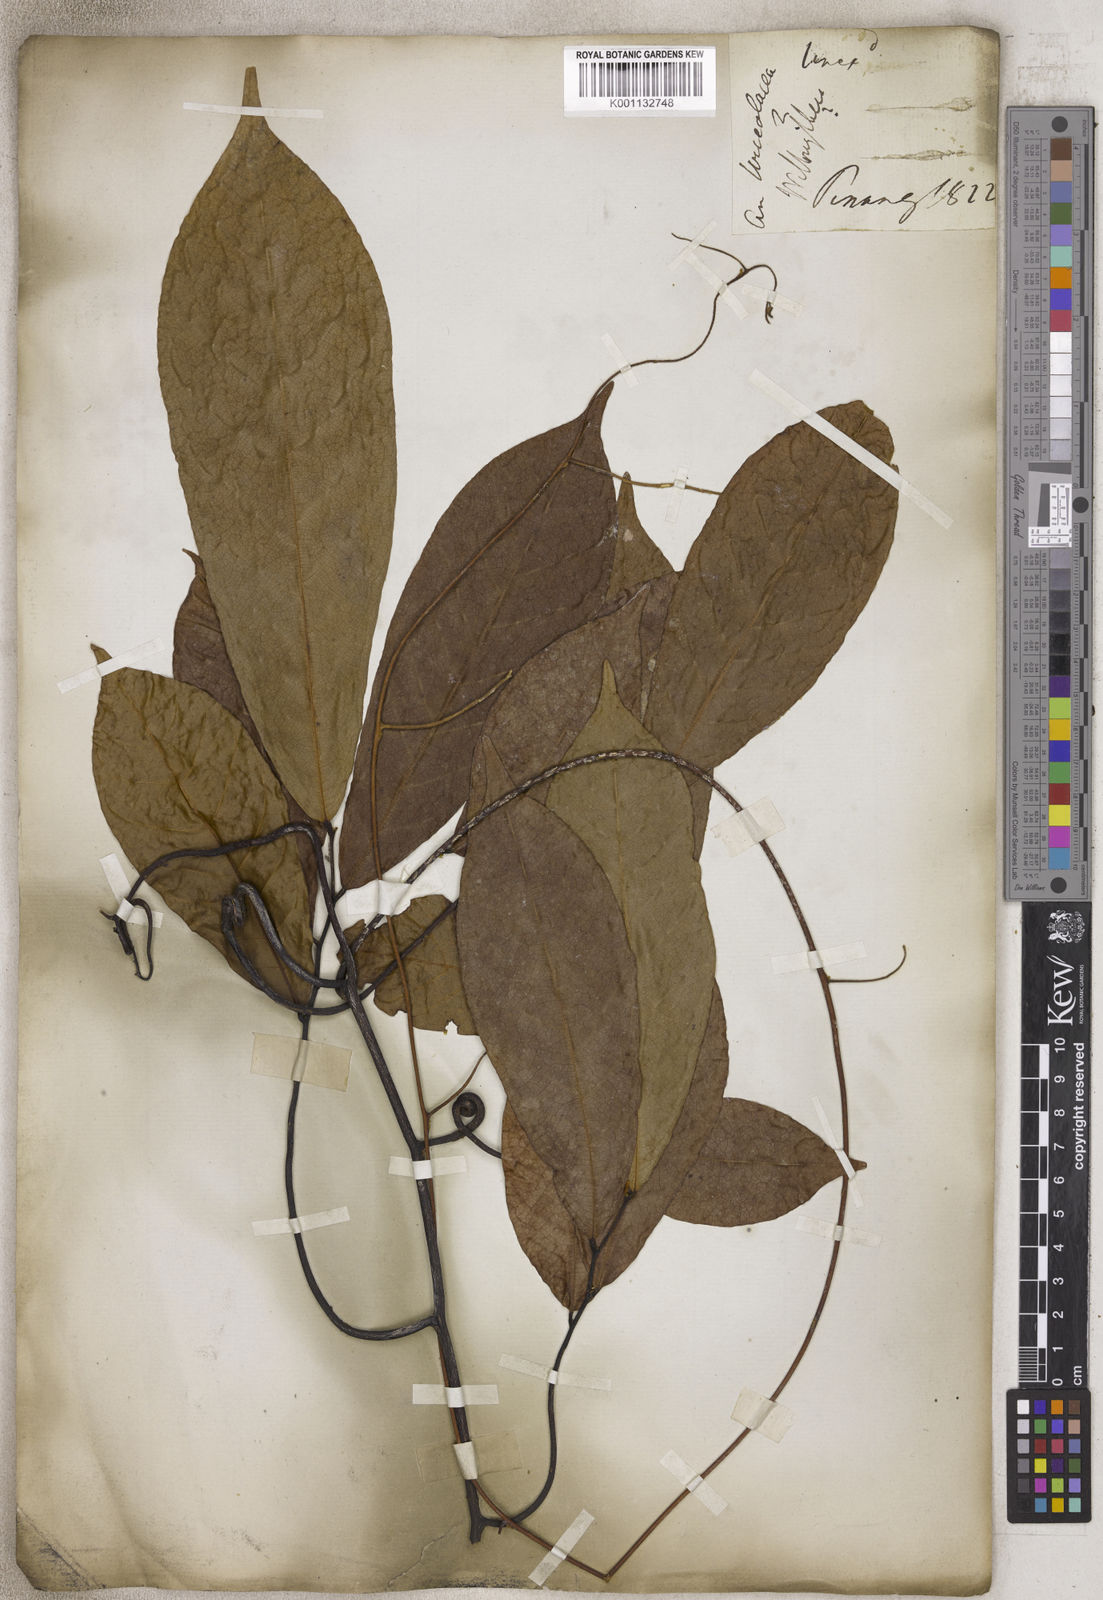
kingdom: Plantae
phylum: Tracheophyta
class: Magnoliopsida
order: Gentianales
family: Apocynaceae
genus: Urceola
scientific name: Urceola
